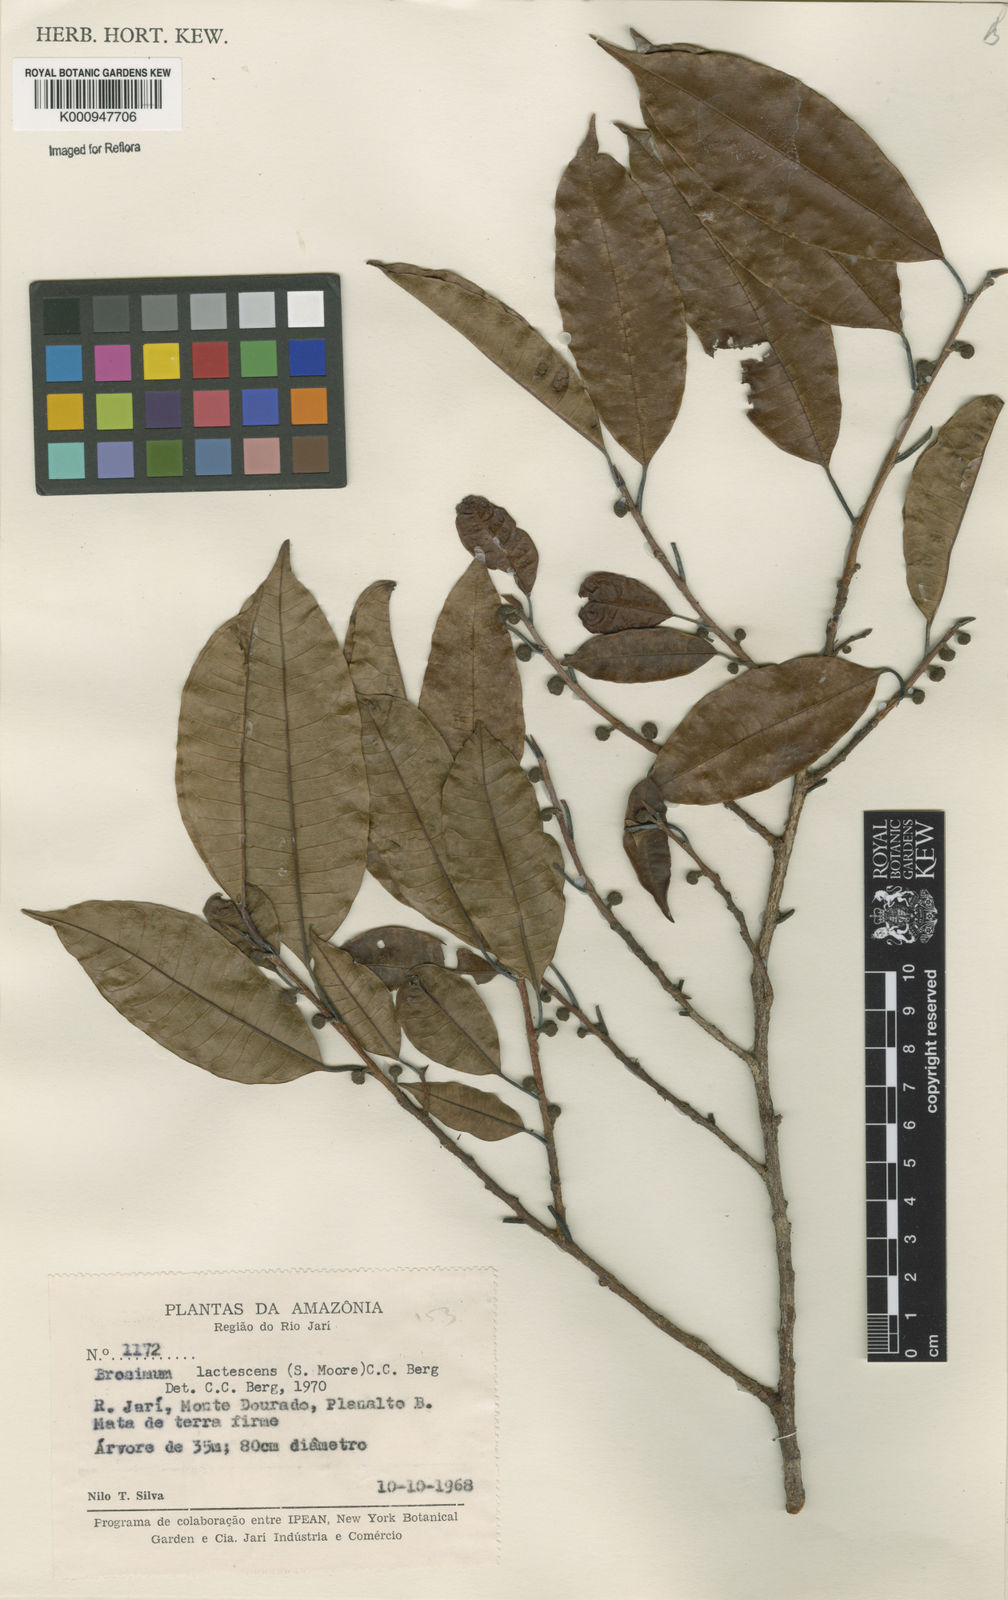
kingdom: Plantae
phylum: Tracheophyta
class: Magnoliopsida
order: Rosales
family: Moraceae
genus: Brosimum
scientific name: Brosimum lactescens
